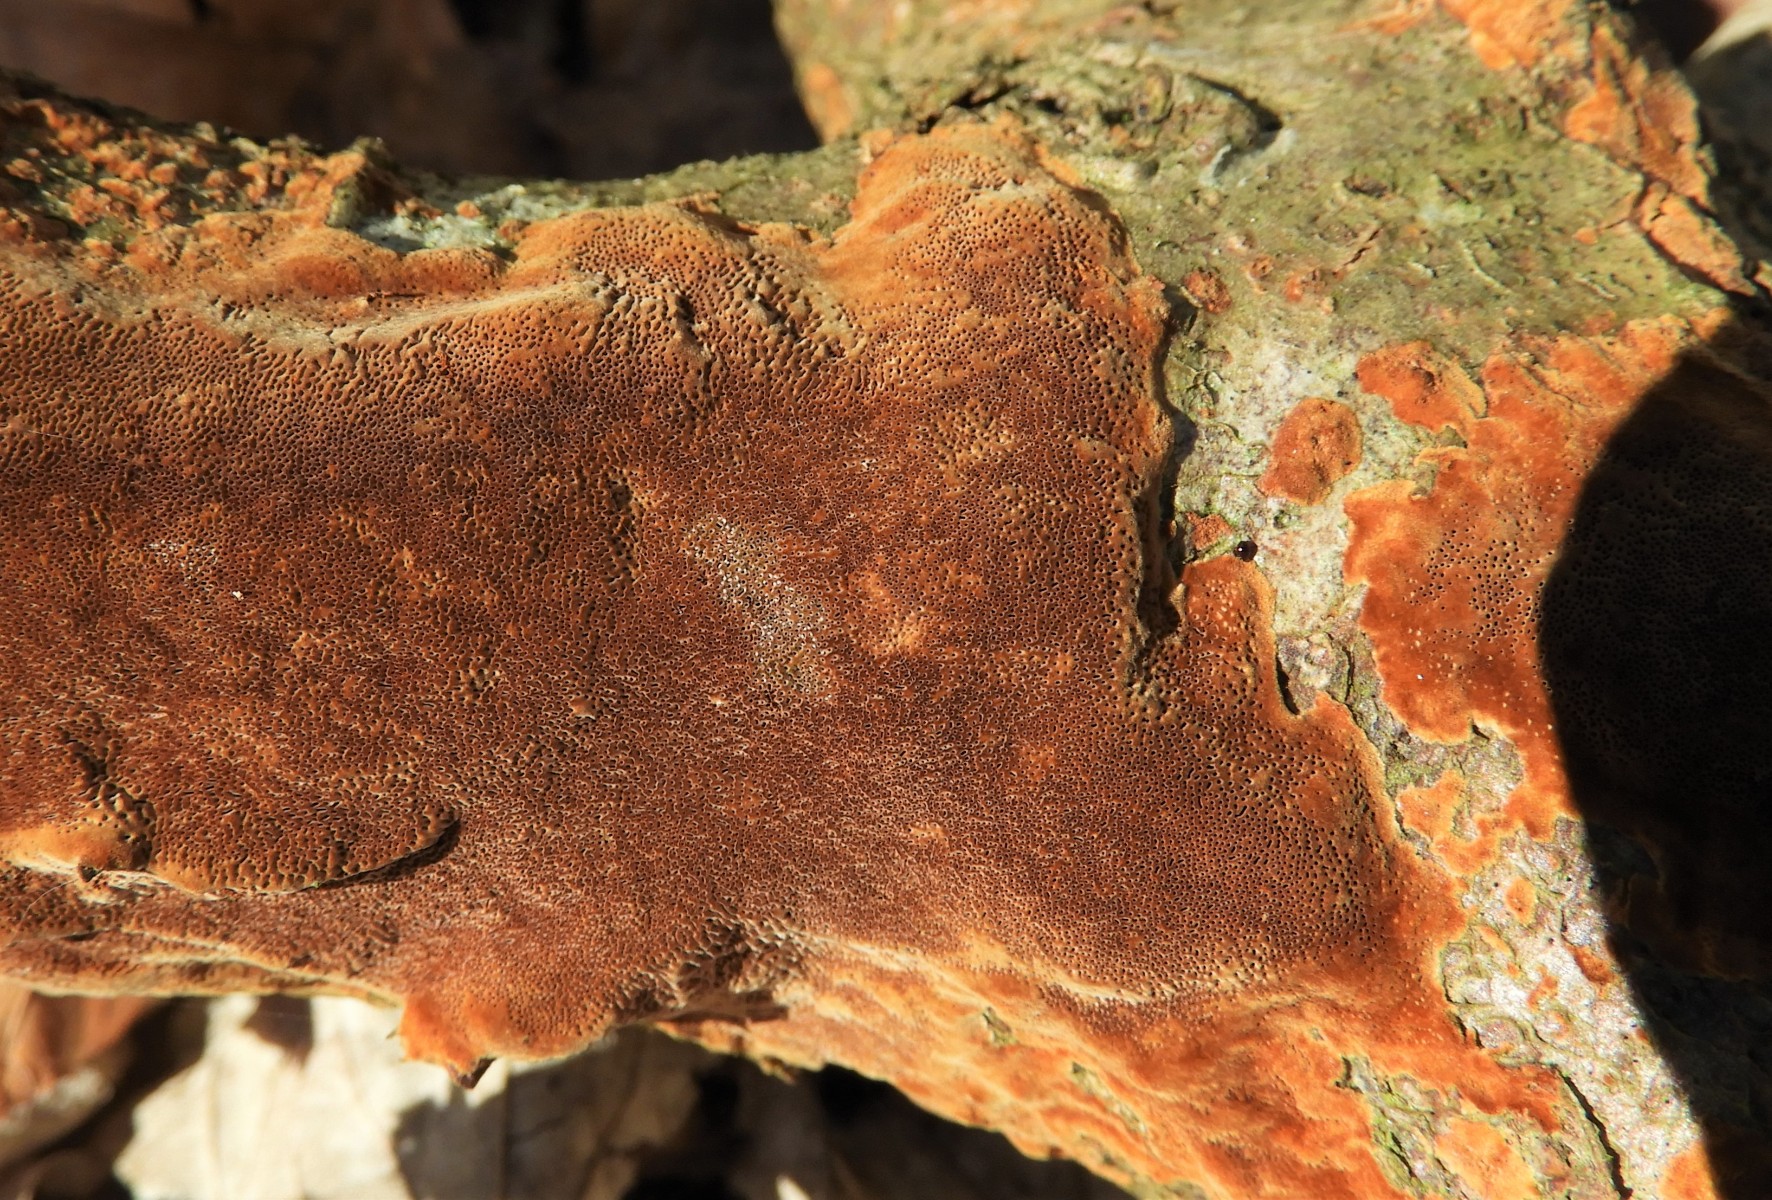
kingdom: Fungi
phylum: Basidiomycota
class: Agaricomycetes
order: Hymenochaetales
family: Hymenochaetaceae
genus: Fuscoporia
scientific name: Fuscoporia ferrea
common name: skorpe-ildporesvamp
